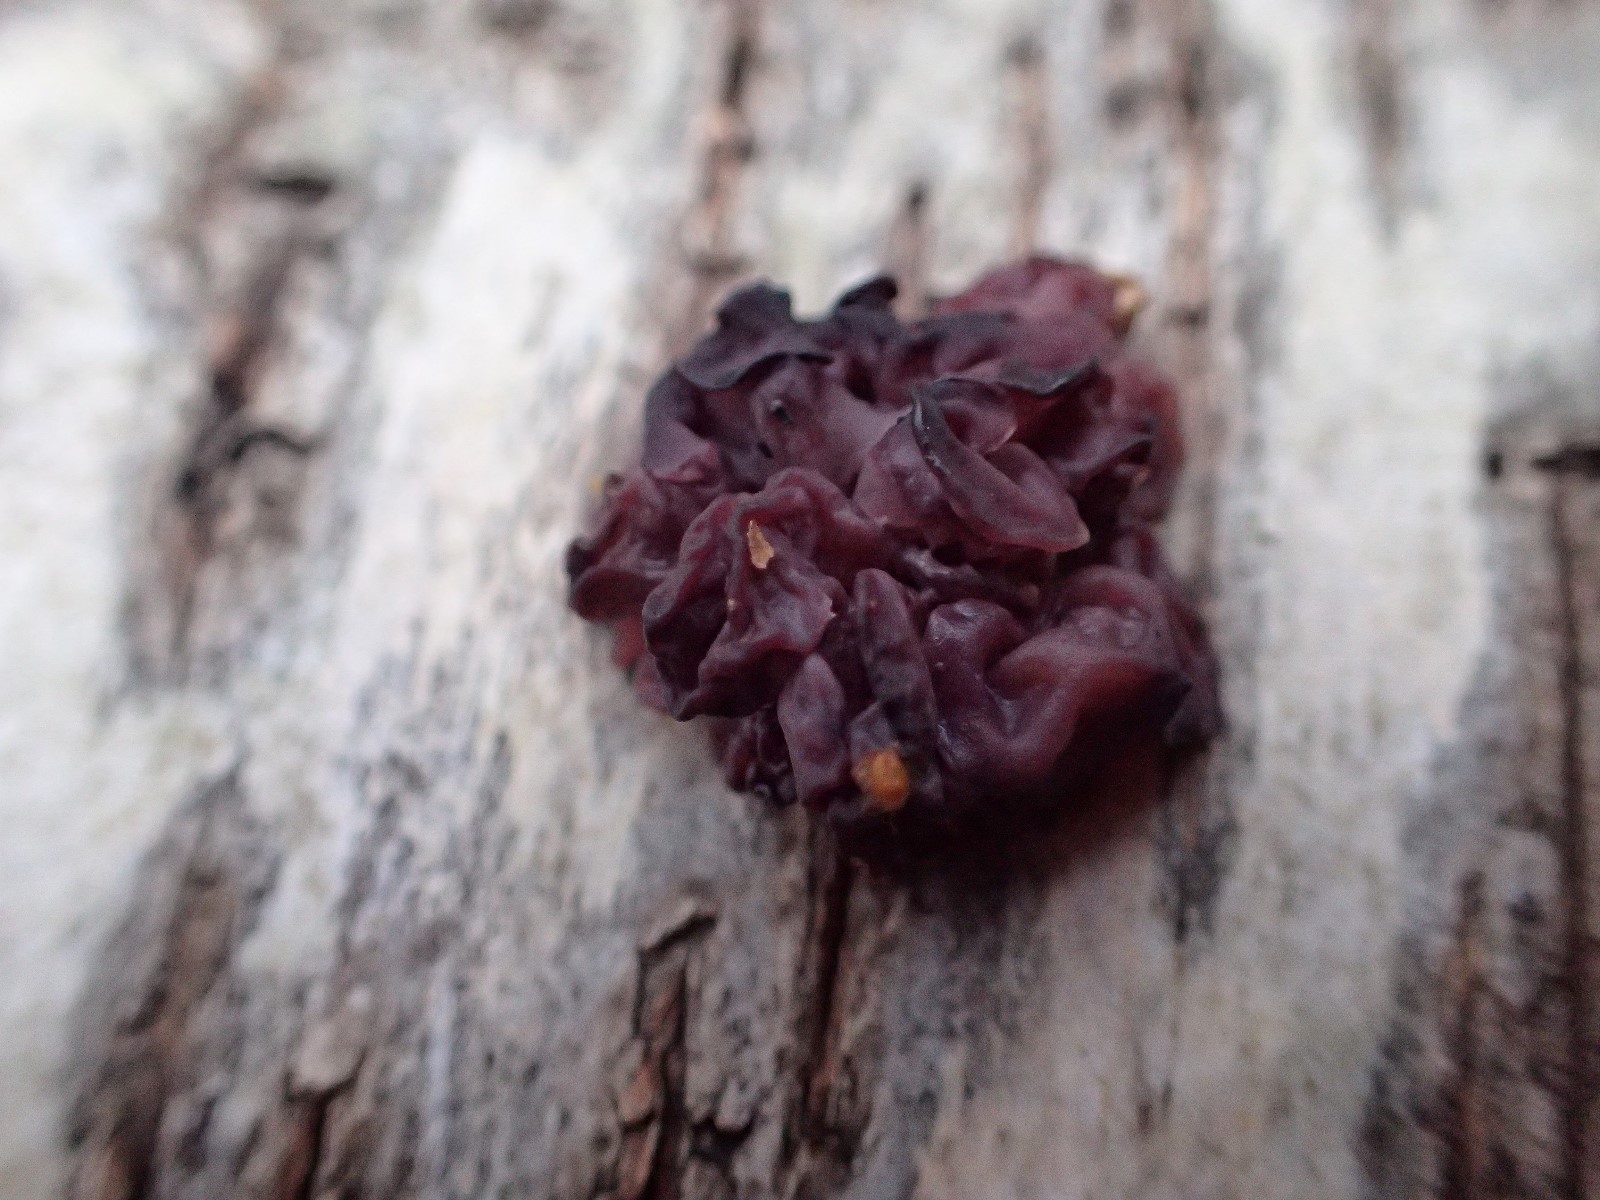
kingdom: Fungi
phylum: Ascomycota
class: Leotiomycetes
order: Helotiales
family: Helotiaceae
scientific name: Helotiaceae
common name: stilkskivefamilien
